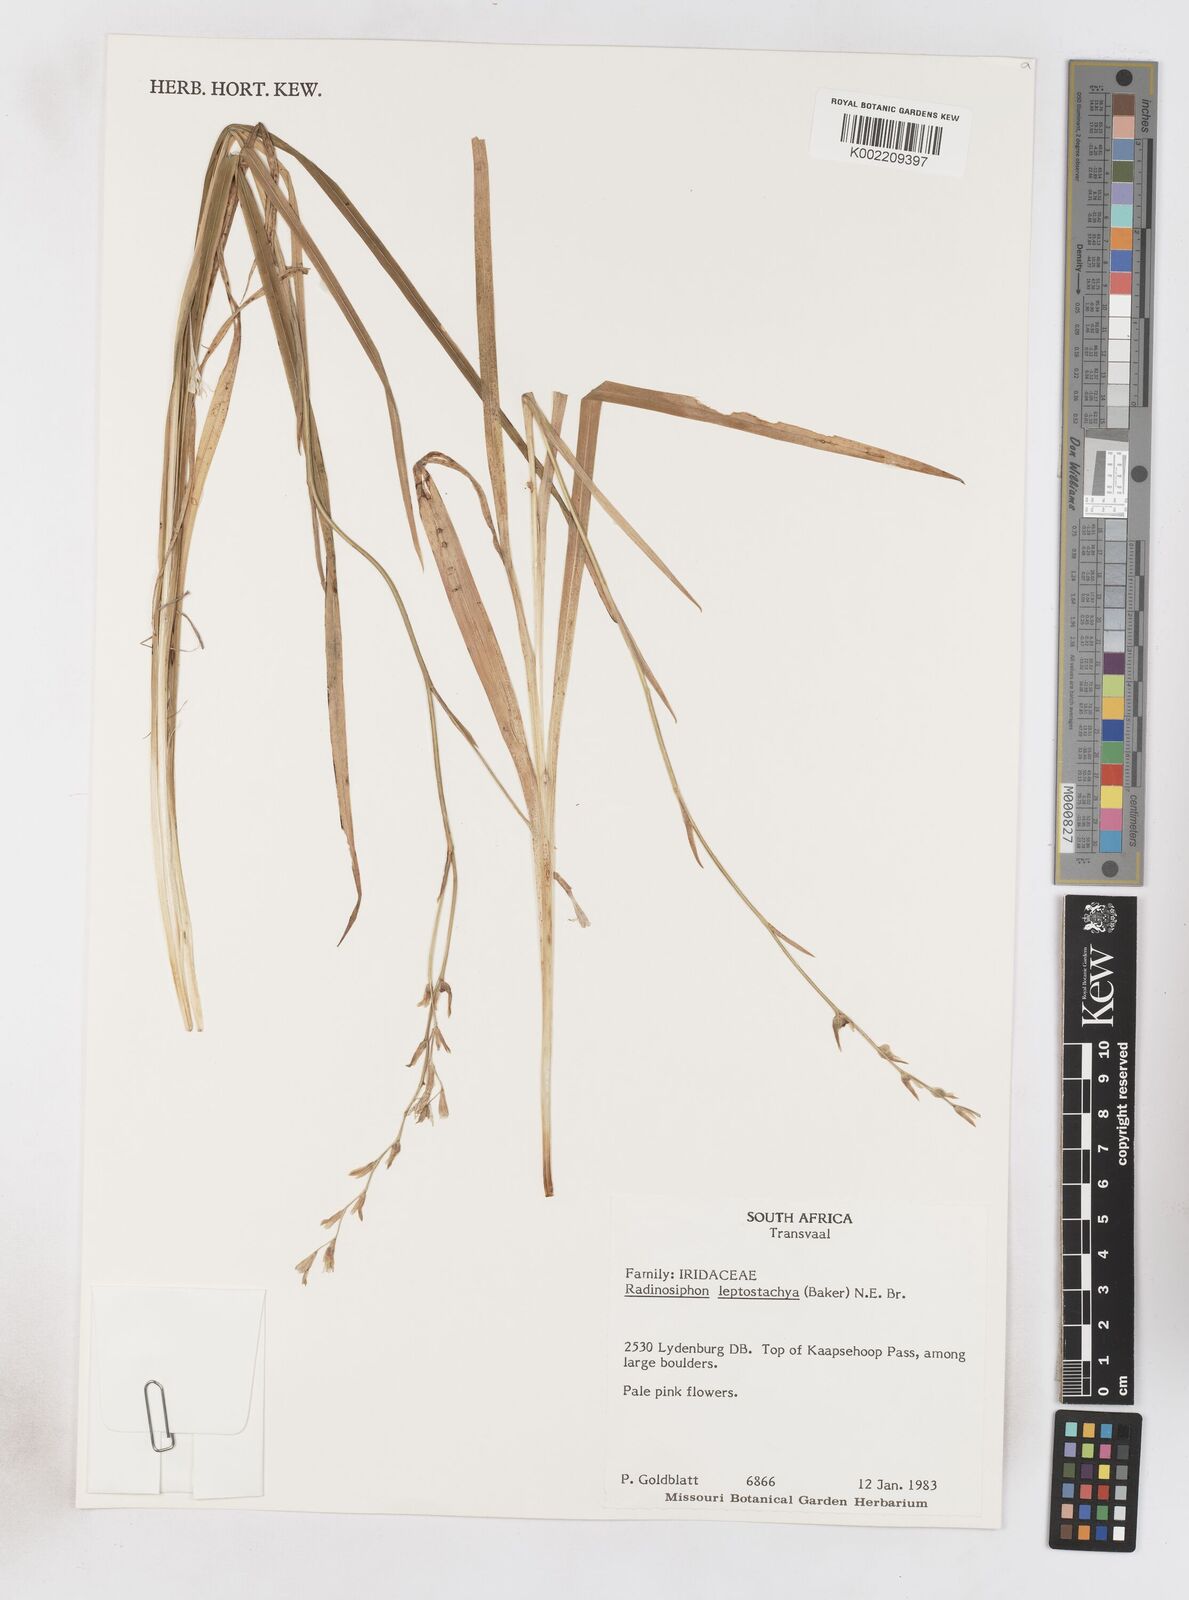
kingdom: Plantae
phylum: Tracheophyta
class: Liliopsida
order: Asparagales
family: Iridaceae
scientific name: Iridaceae
